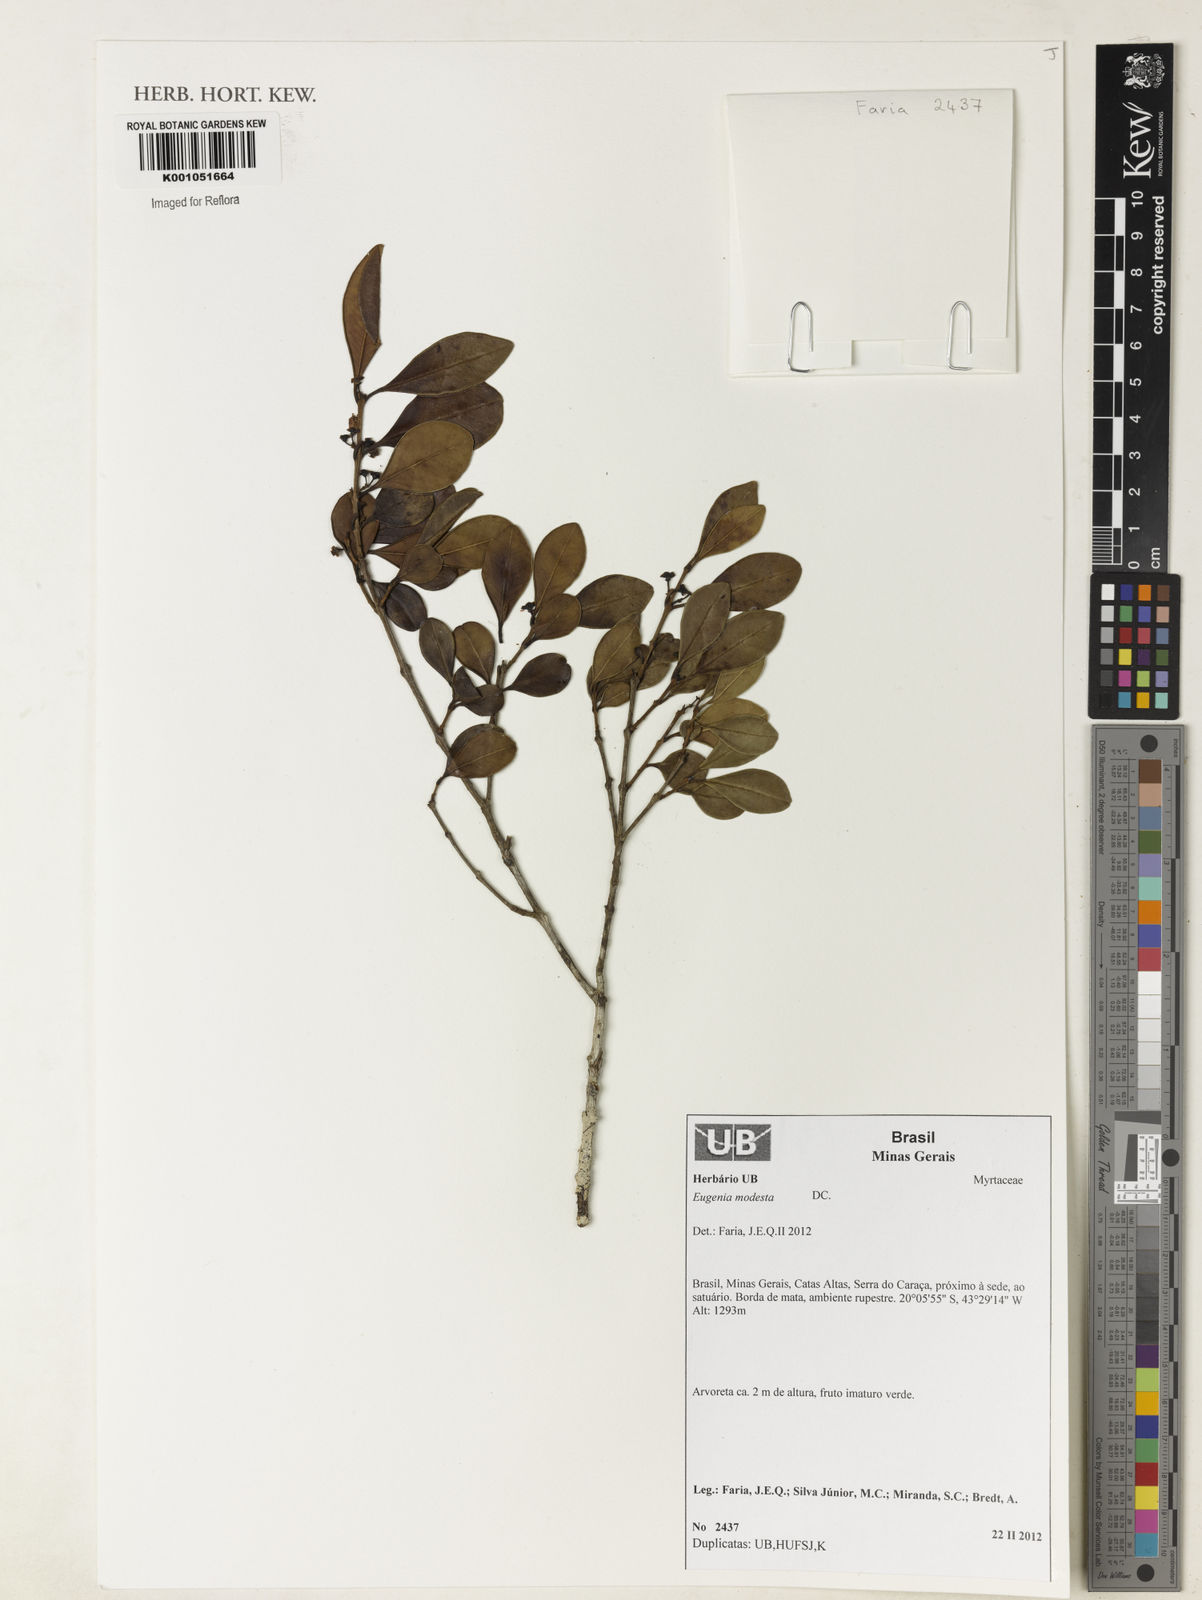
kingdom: Plantae
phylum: Tracheophyta
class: Magnoliopsida
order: Myrtales
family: Myrtaceae
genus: Eugenia
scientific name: Eugenia modesta
